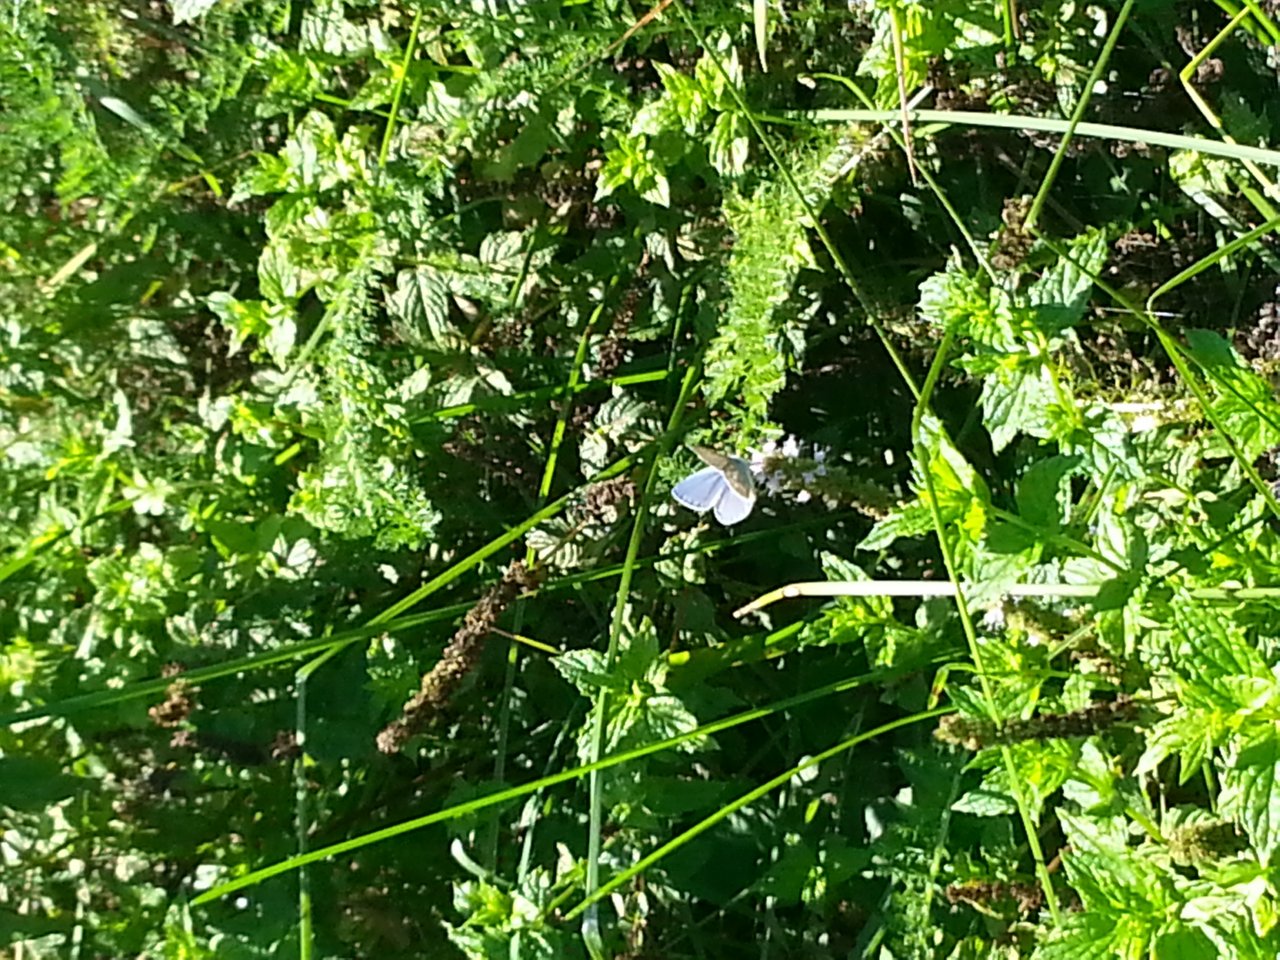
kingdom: Animalia
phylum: Arthropoda
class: Insecta
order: Lepidoptera
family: Lycaenidae
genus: Polyommatus
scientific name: Polyommatus icarus
